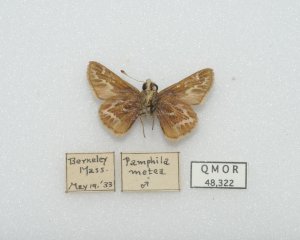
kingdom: Animalia
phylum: Arthropoda
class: Insecta
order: Lepidoptera
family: Hesperiidae
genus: Hesperia
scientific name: Hesperia metea
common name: Cobweb Skipper
